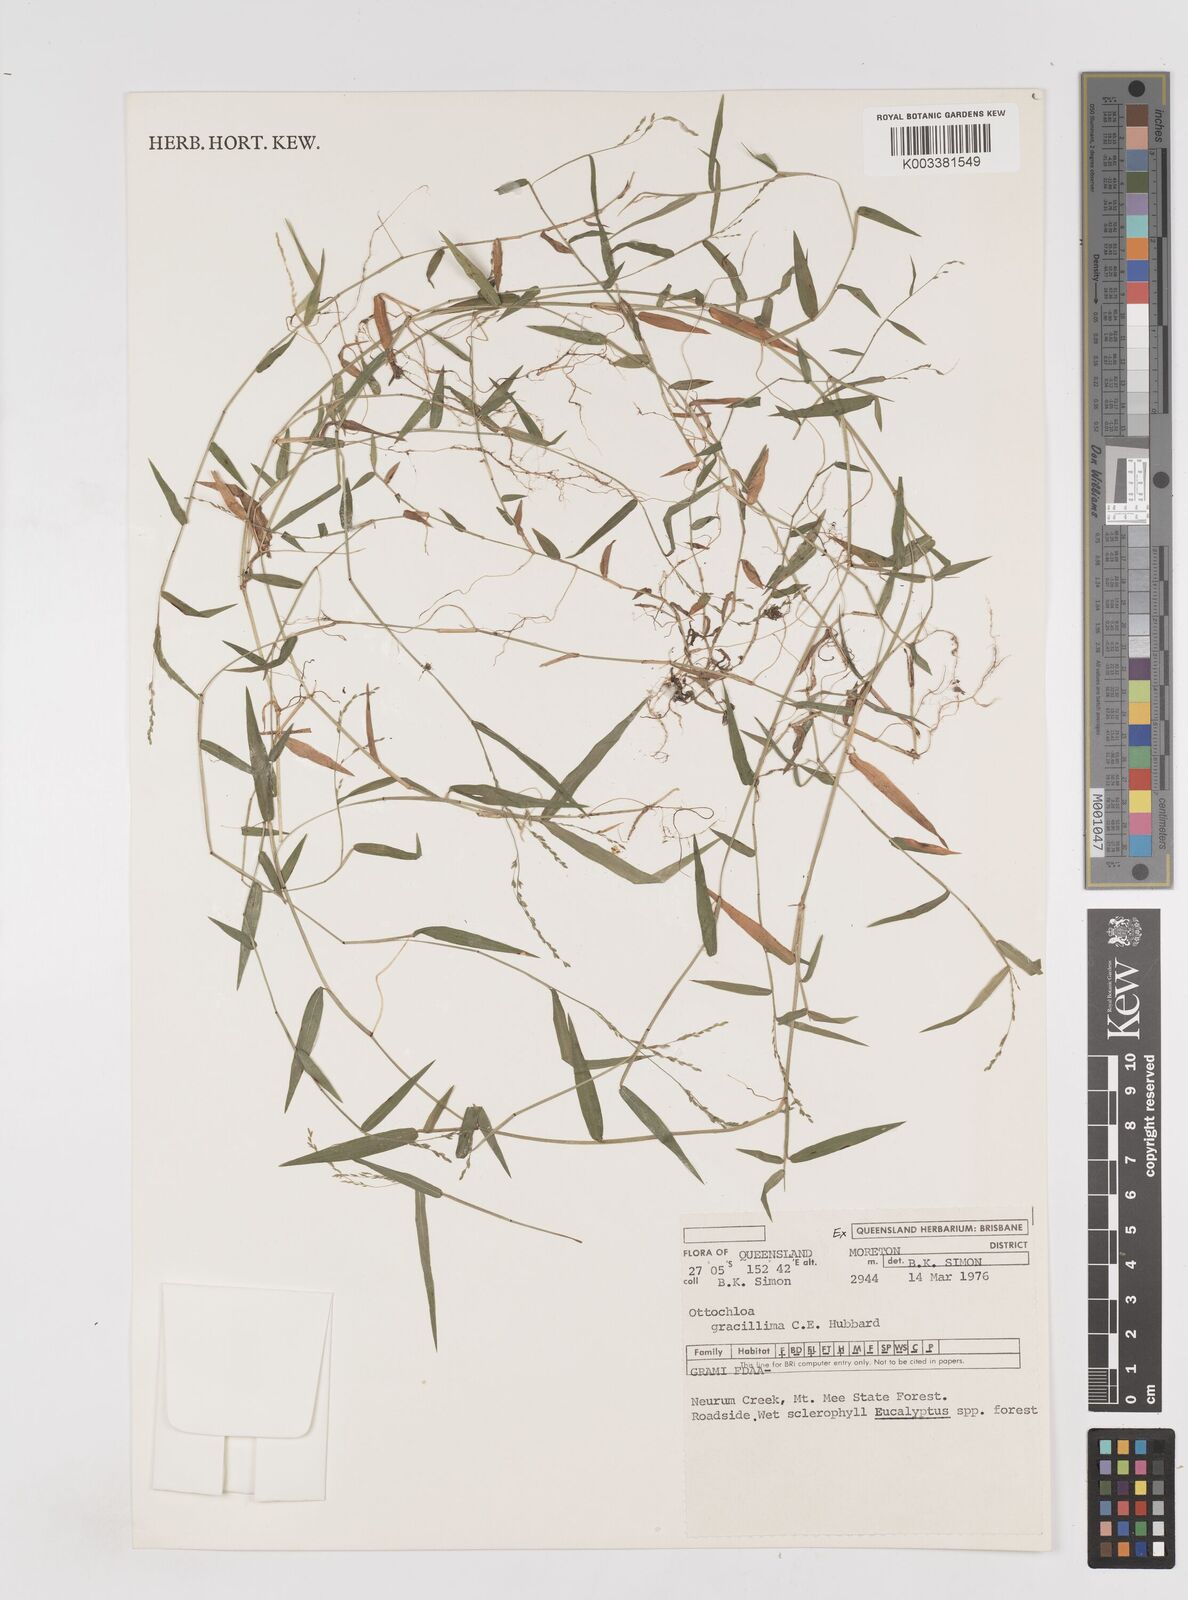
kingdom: Plantae
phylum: Tracheophyta
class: Liliopsida
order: Poales
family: Poaceae
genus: Ottochloa
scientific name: Ottochloa gracillima
